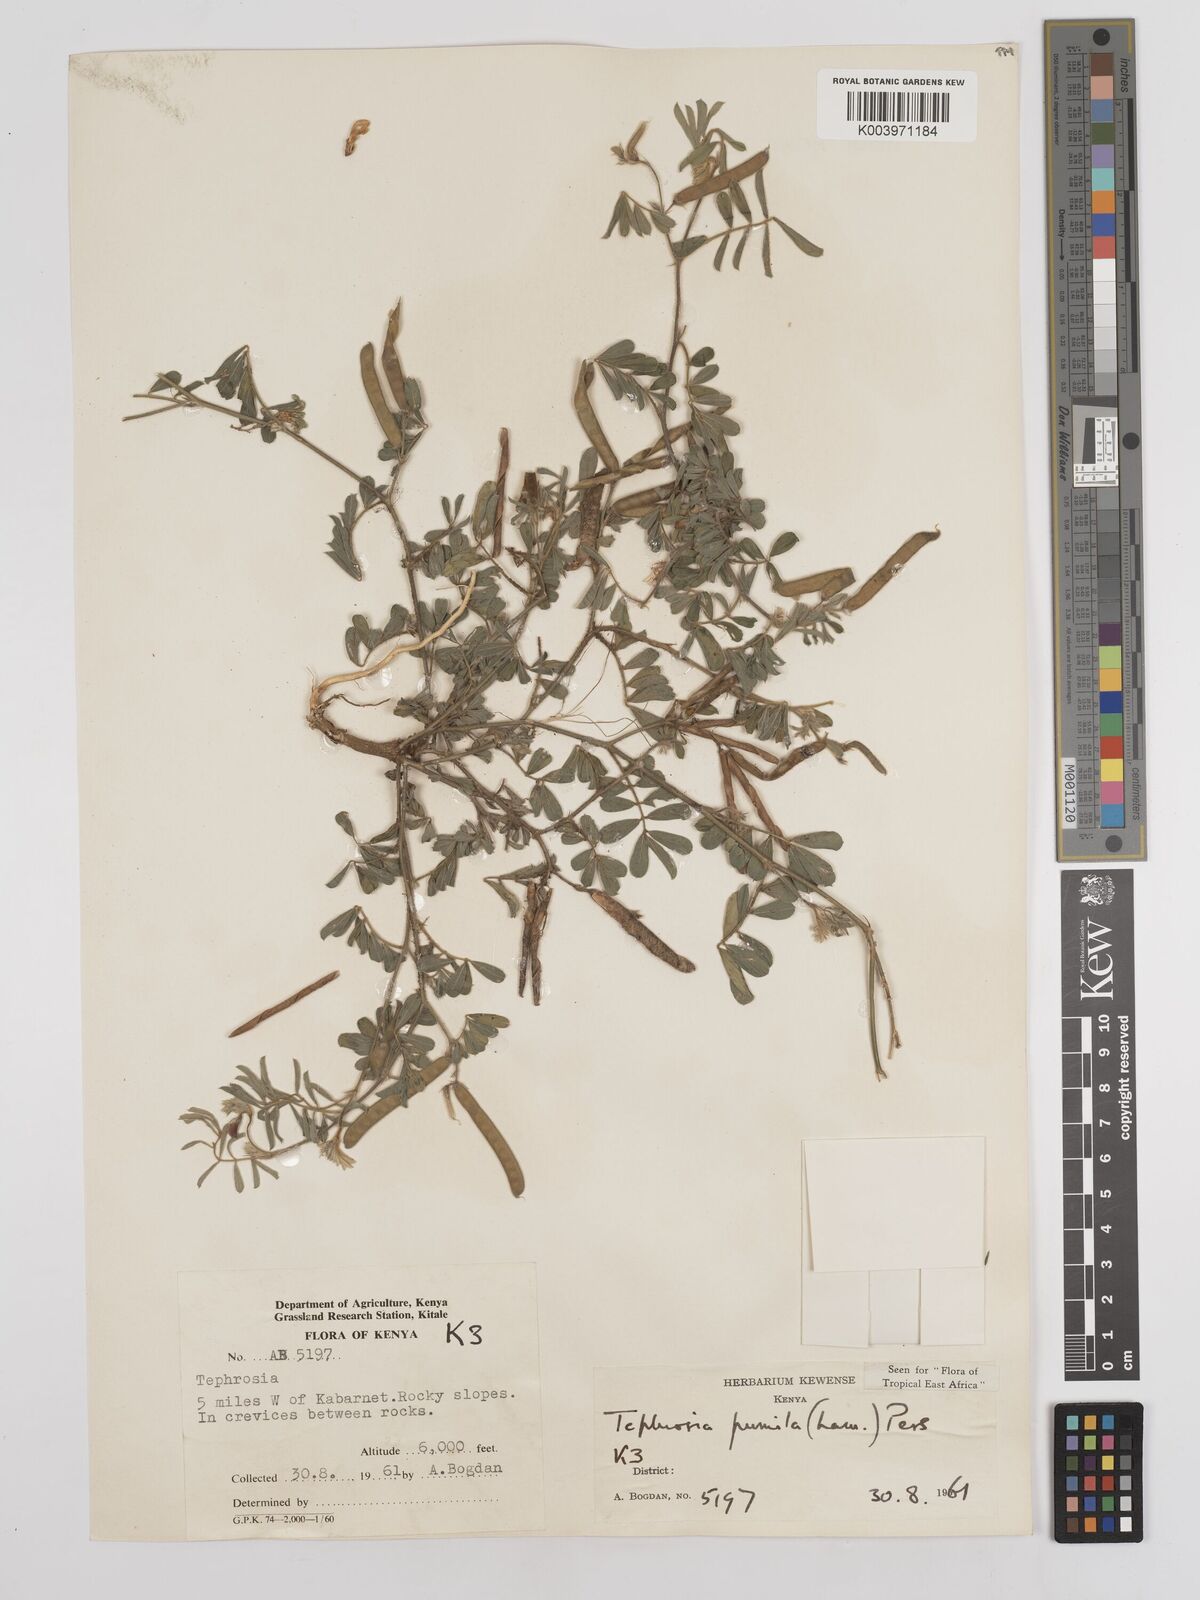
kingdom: Plantae
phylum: Tracheophyta
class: Magnoliopsida
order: Fabales
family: Fabaceae
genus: Tephrosia
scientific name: Tephrosia pumila
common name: Indigo sauvage
